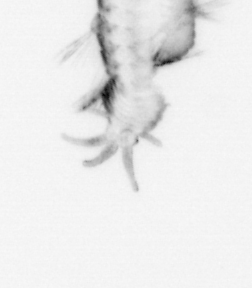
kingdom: Animalia
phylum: Annelida
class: Polychaeta
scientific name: Polychaeta
